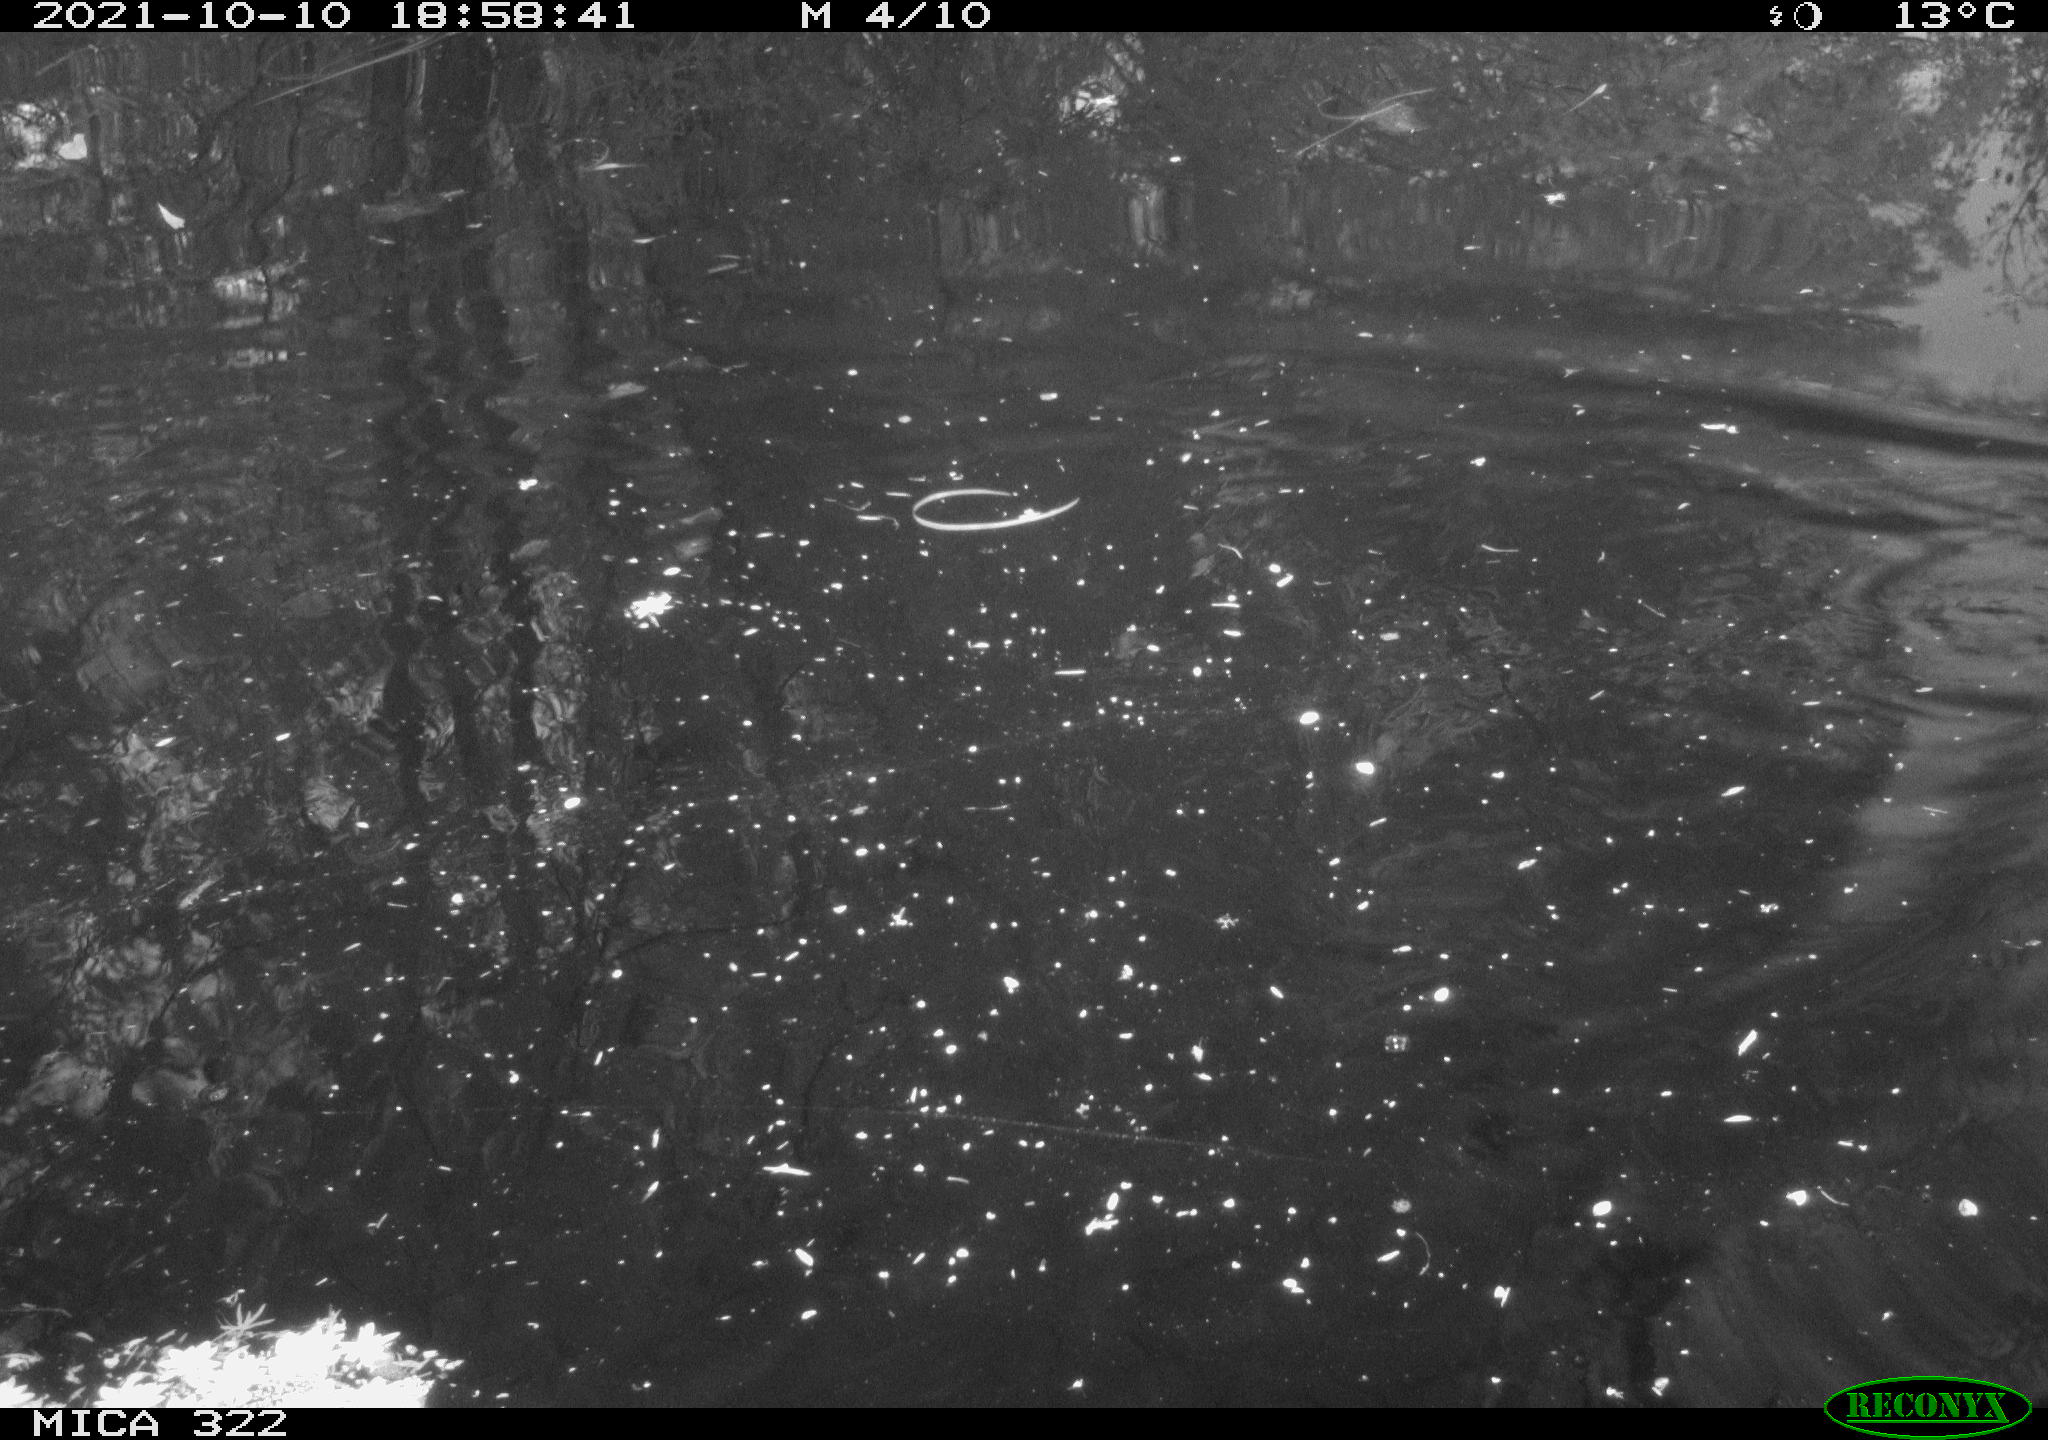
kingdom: Animalia
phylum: Chordata
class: Aves
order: Gruiformes
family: Rallidae
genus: Gallinula
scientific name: Gallinula chloropus
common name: Common moorhen
